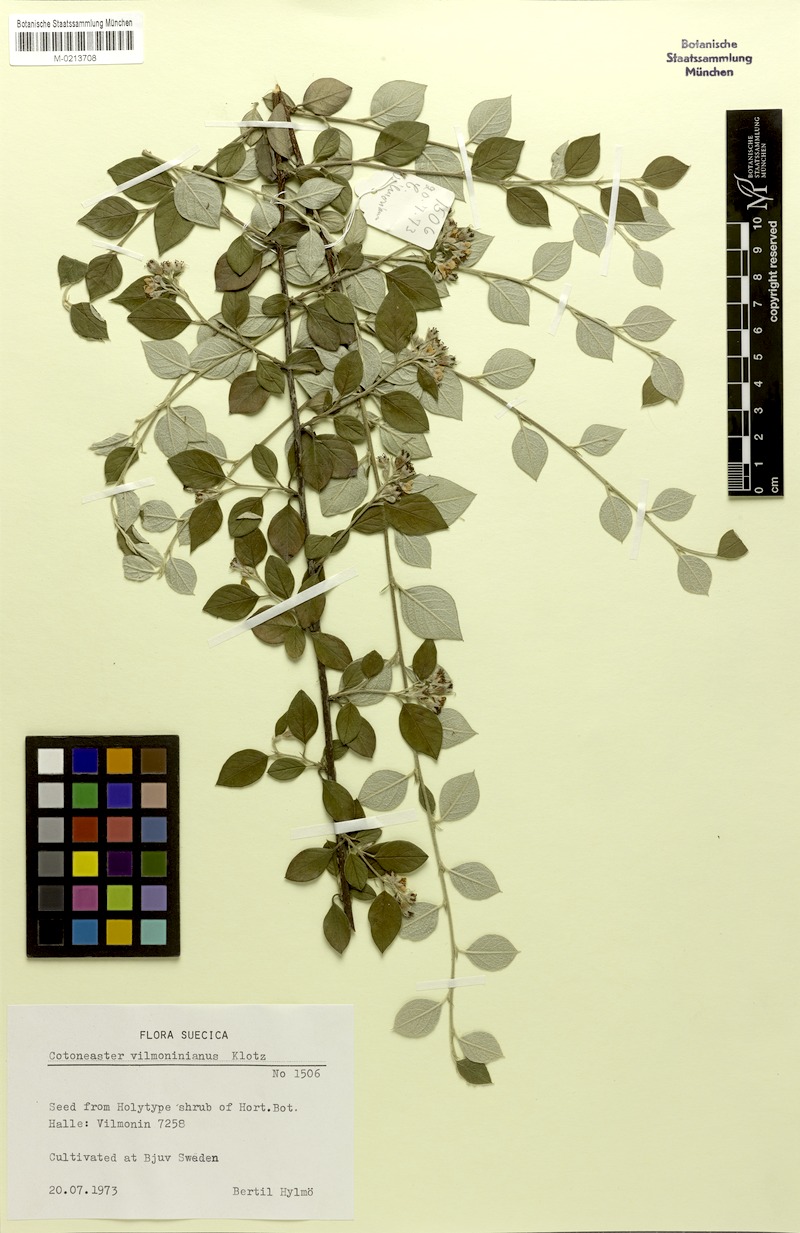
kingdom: Plantae
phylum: Tracheophyta
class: Magnoliopsida
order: Rosales
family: Rosaceae
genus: Cotoneaster
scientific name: Cotoneaster franchetii
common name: Franchet's cotoneaster
